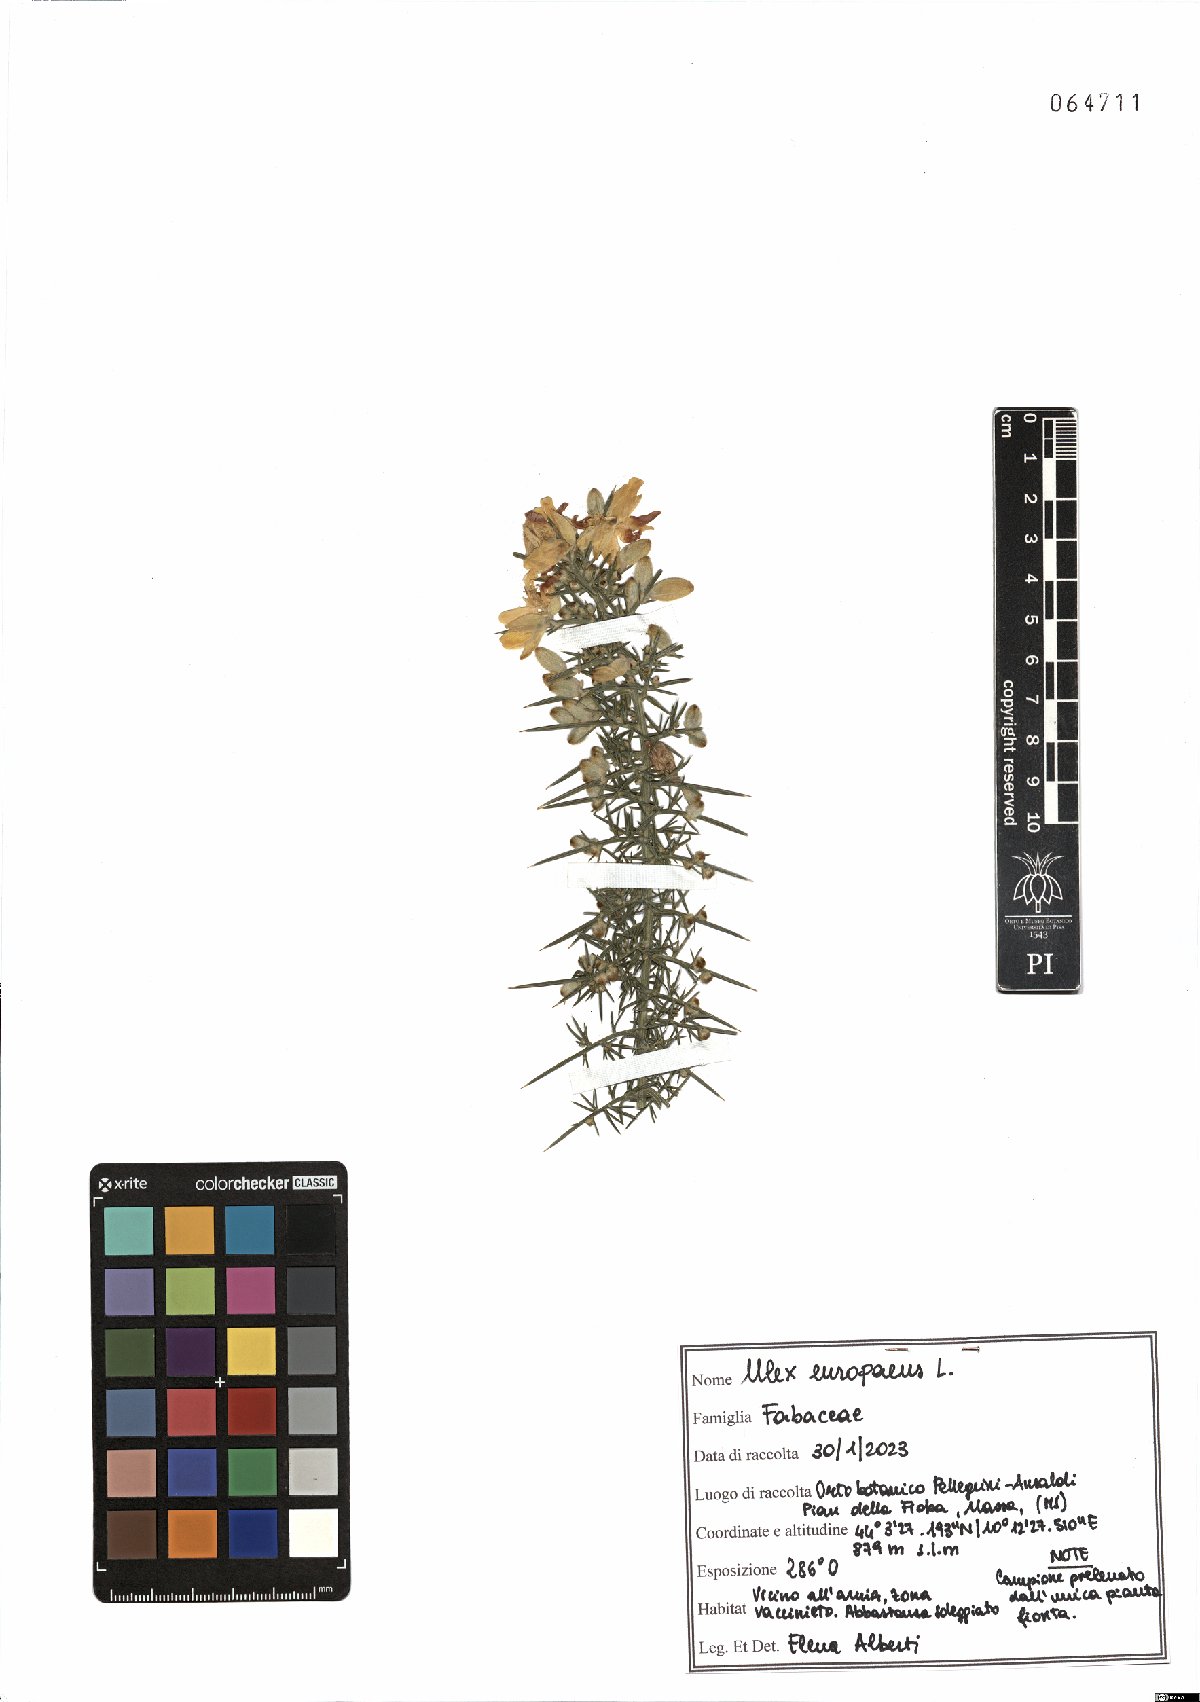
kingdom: Plantae
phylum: Tracheophyta
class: Magnoliopsida
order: Fabales
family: Fabaceae
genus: Ulex
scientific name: Ulex europaeus
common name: Common gorse
